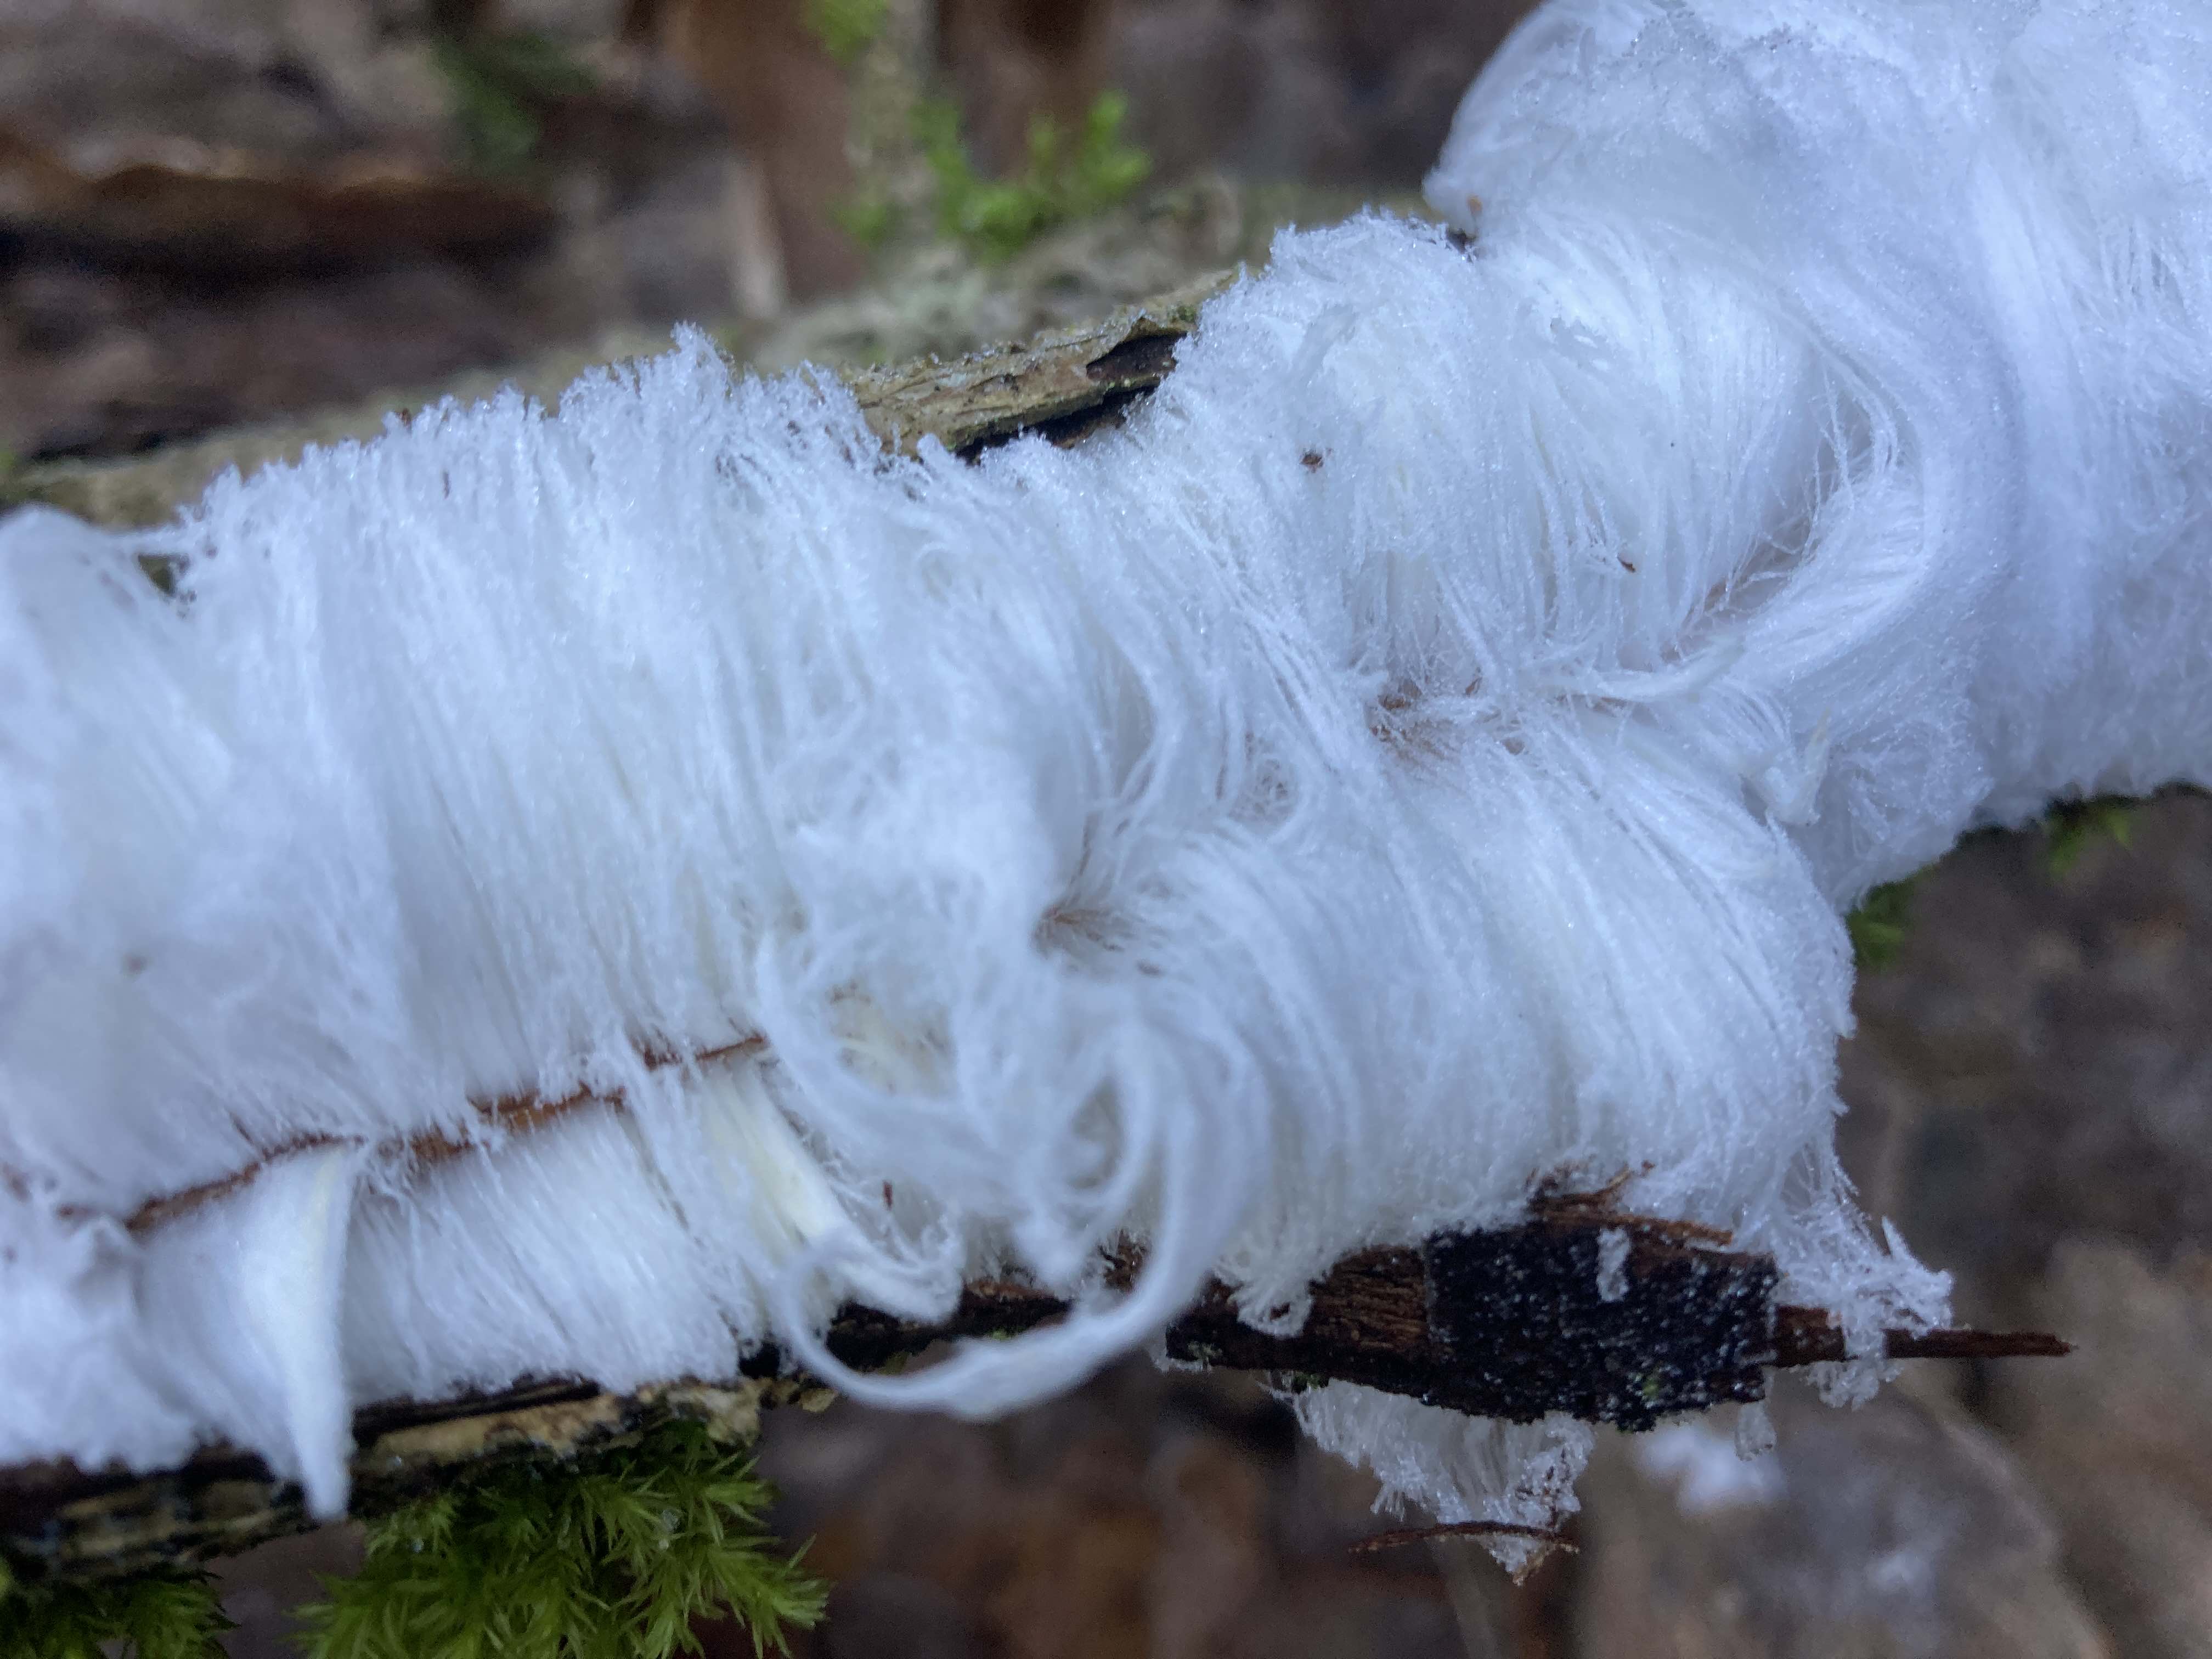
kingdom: Fungi
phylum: Basidiomycota
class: Tremellomycetes
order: Tremellales
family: Exidiaceae
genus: Exidiopsis
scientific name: Exidiopsis effusa
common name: smuk bævrehinde
